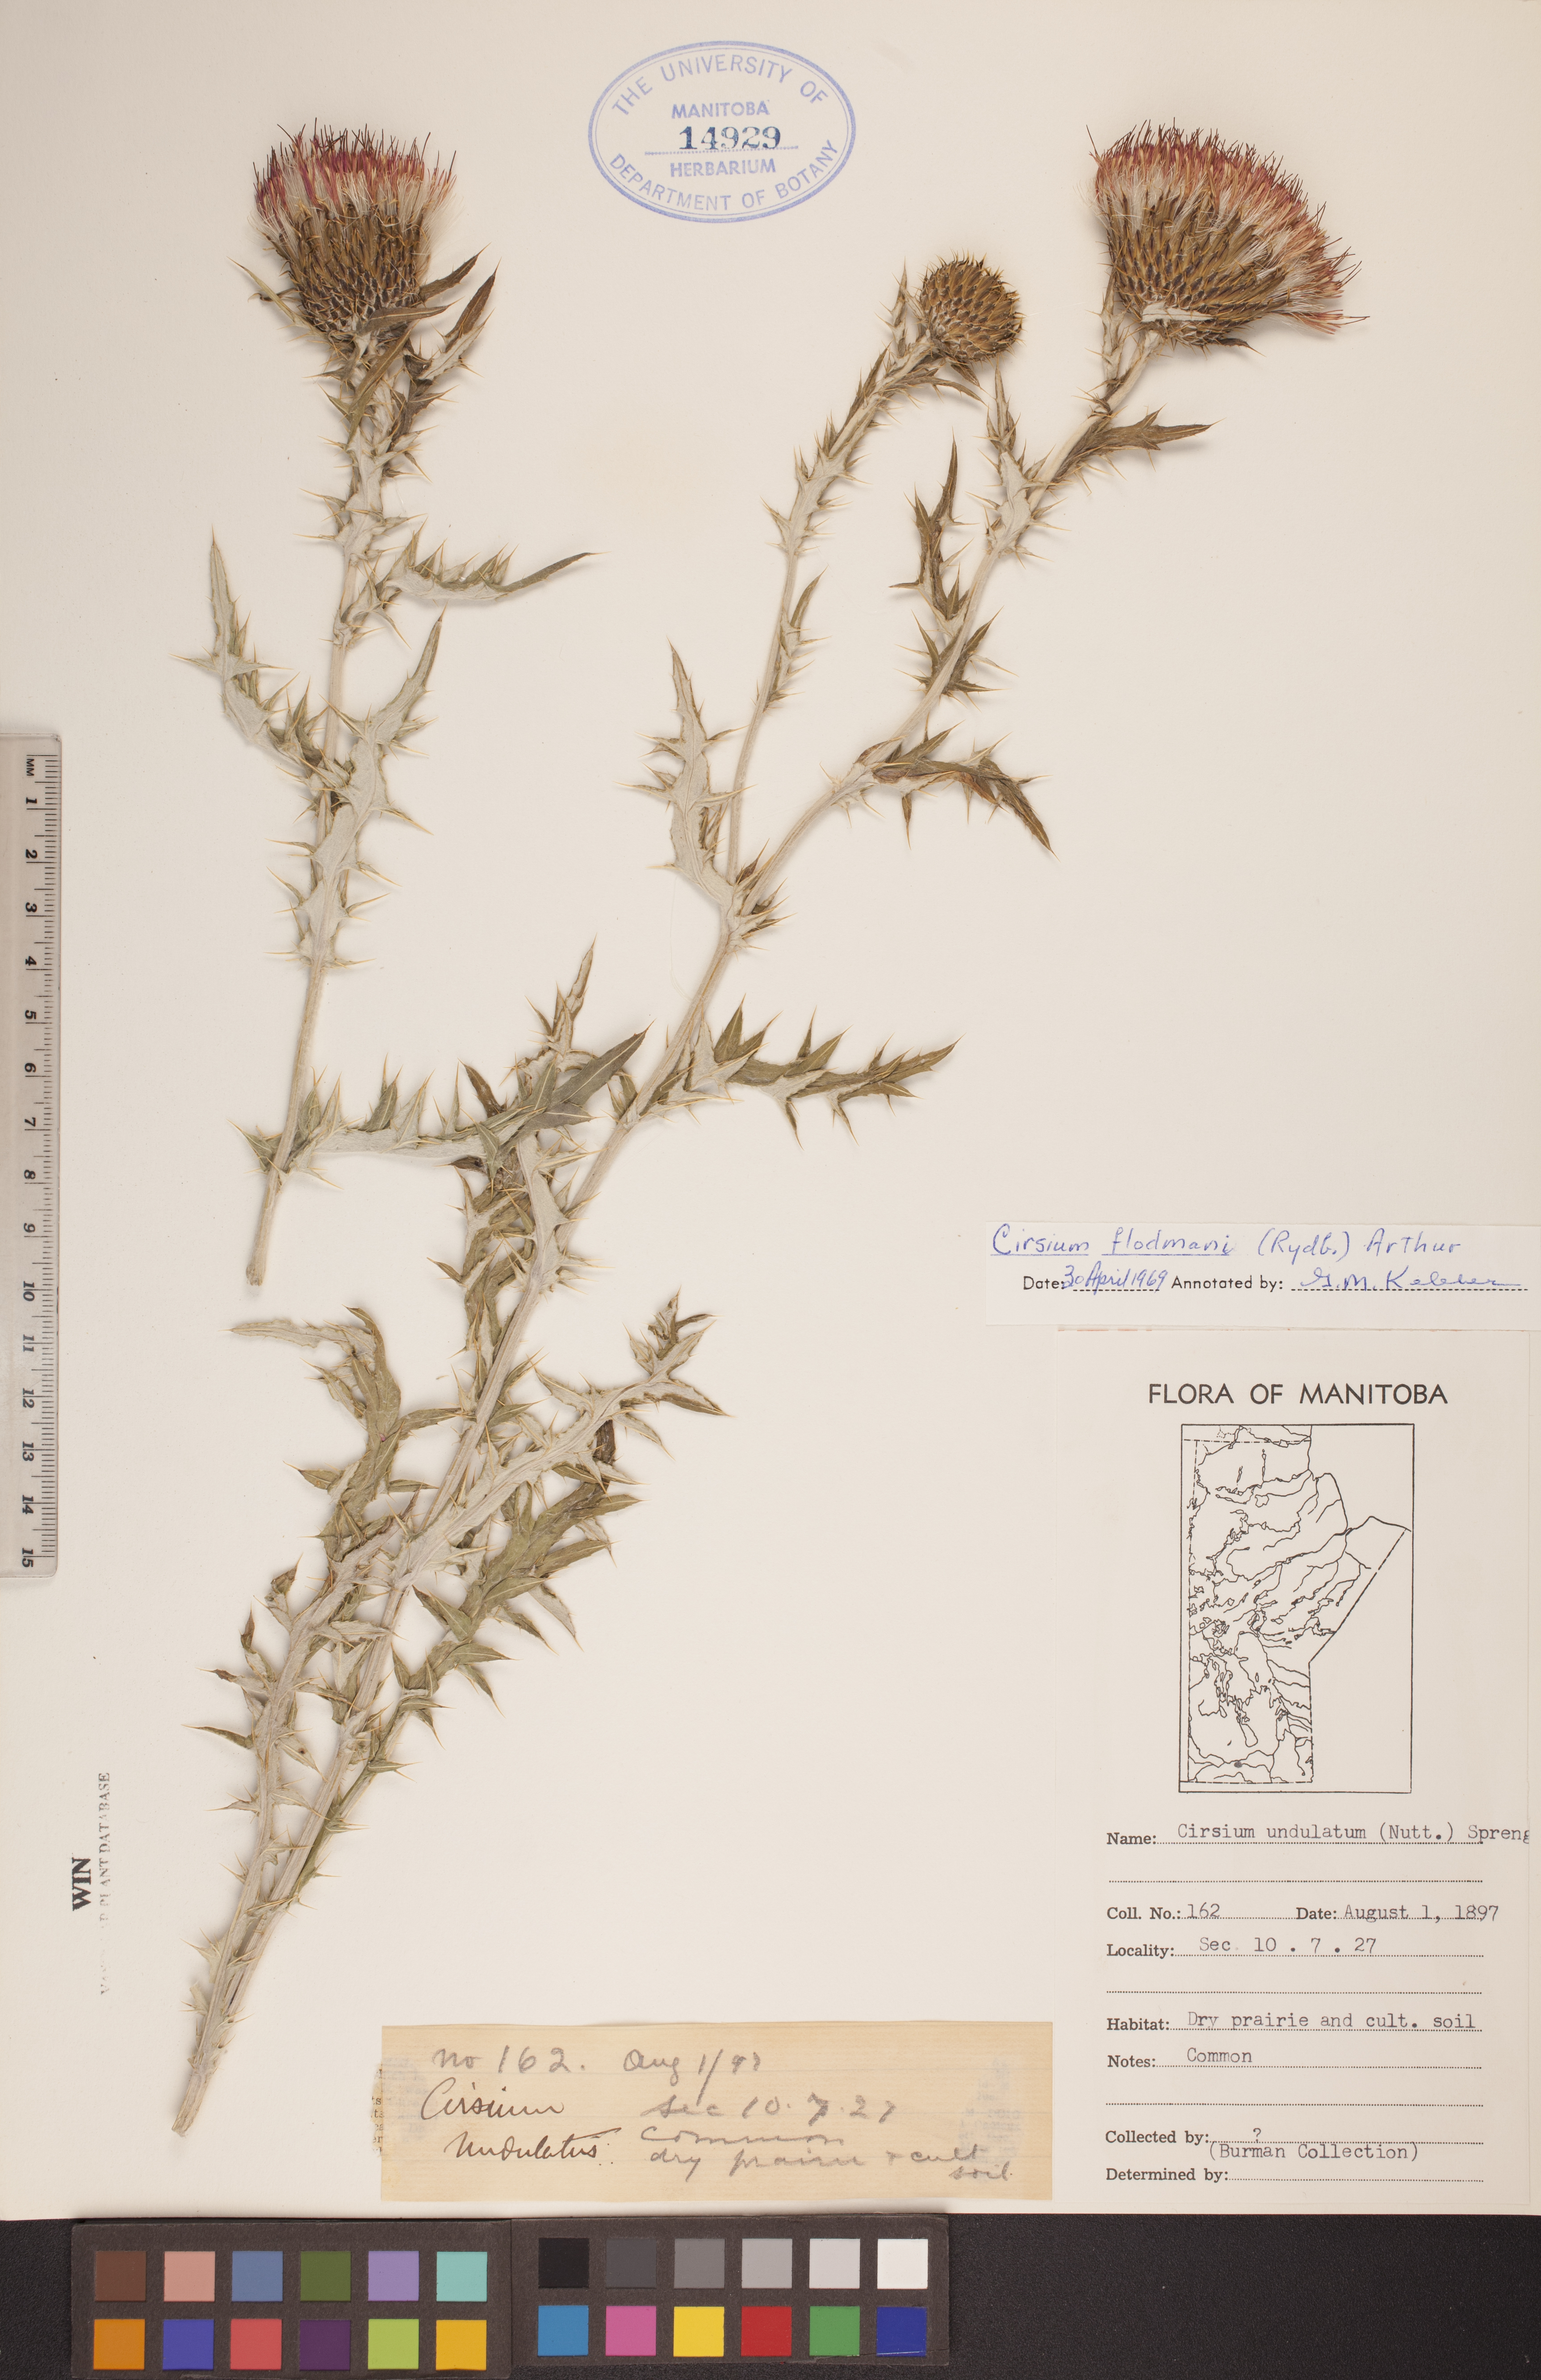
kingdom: Plantae
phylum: Tracheophyta
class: Magnoliopsida
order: Asterales
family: Asteraceae
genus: Cirsium
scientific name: Cirsium flodmanii
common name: Flodman's thistle
